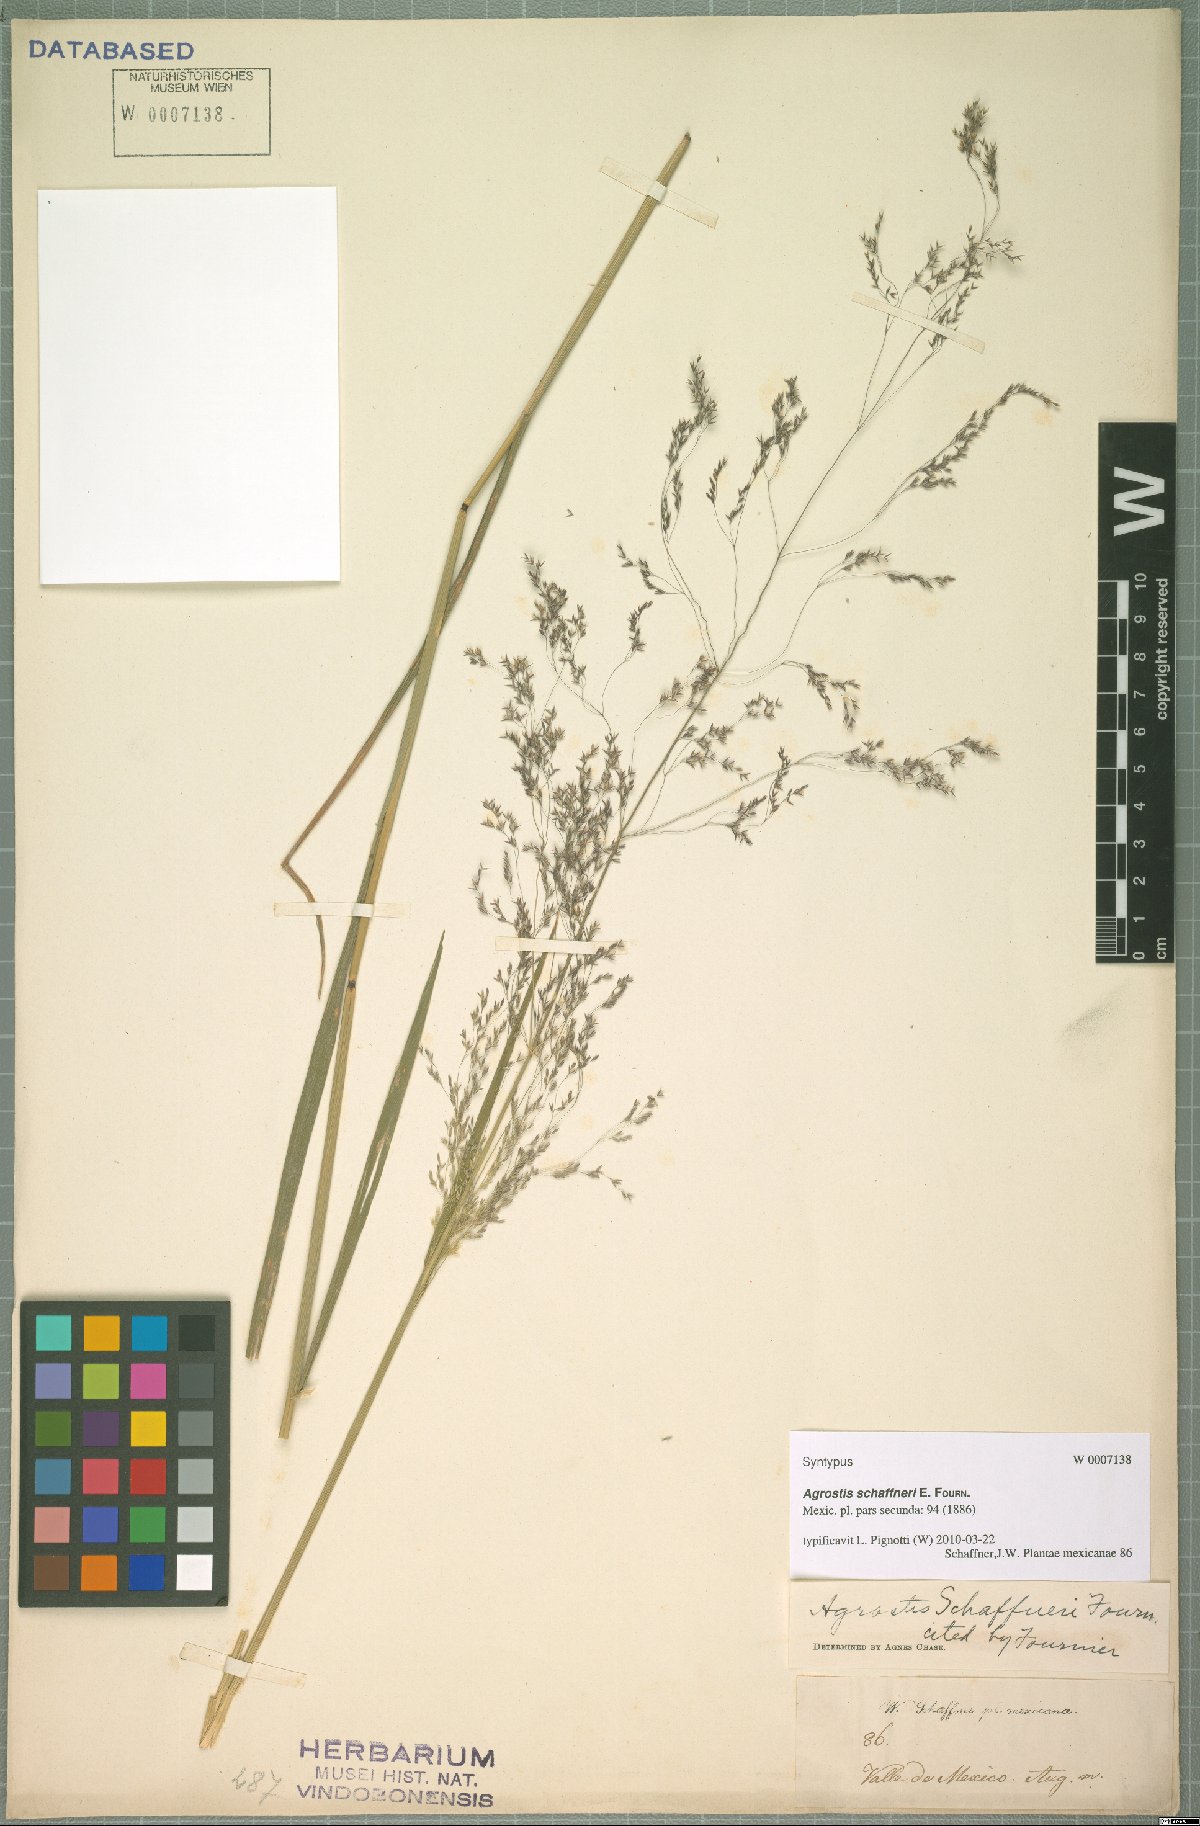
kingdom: Plantae
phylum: Tracheophyta
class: Liliopsida
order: Poales
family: Poaceae
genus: Agrostis
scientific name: Agrostis schaffneri
